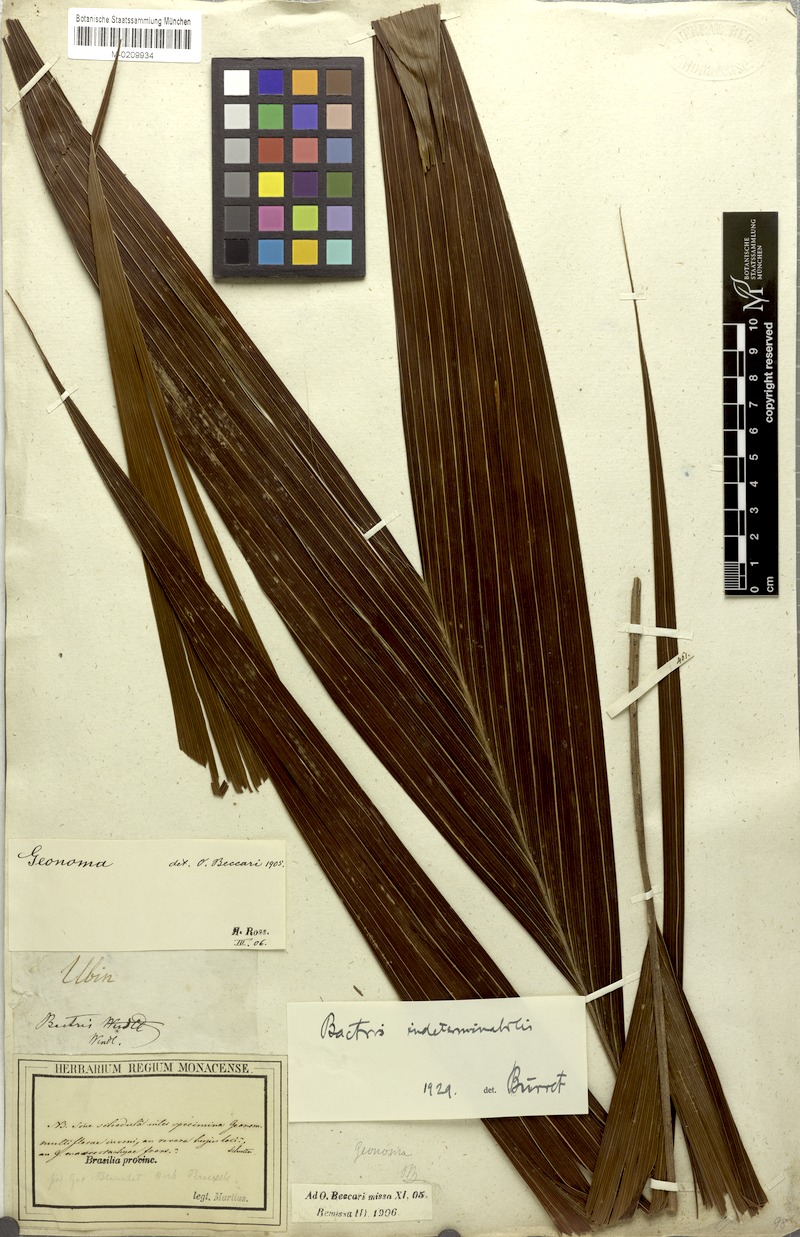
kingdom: Plantae
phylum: Tracheophyta
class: Liliopsida
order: Arecales
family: Arecaceae
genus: Bactris
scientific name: Bactris
